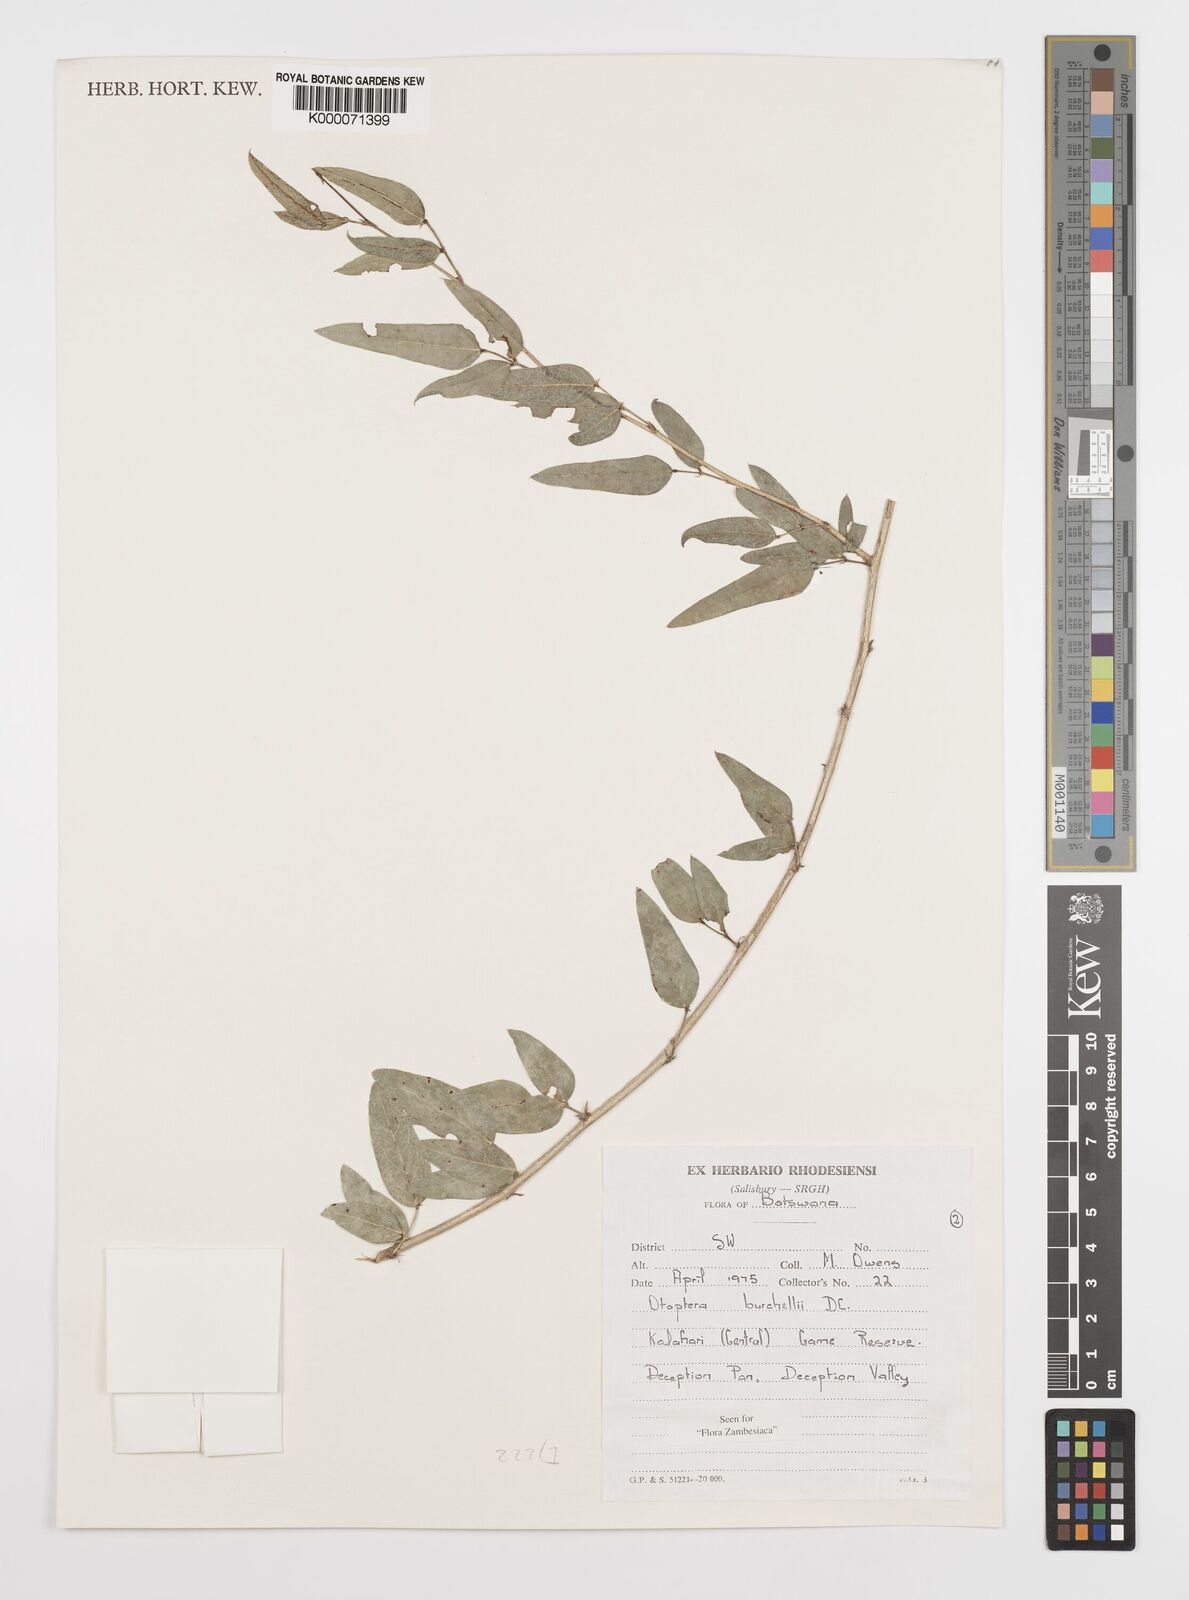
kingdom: Plantae
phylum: Tracheophyta
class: Magnoliopsida
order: Fabales
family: Fabaceae
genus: Otoptera
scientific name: Otoptera burchellii
